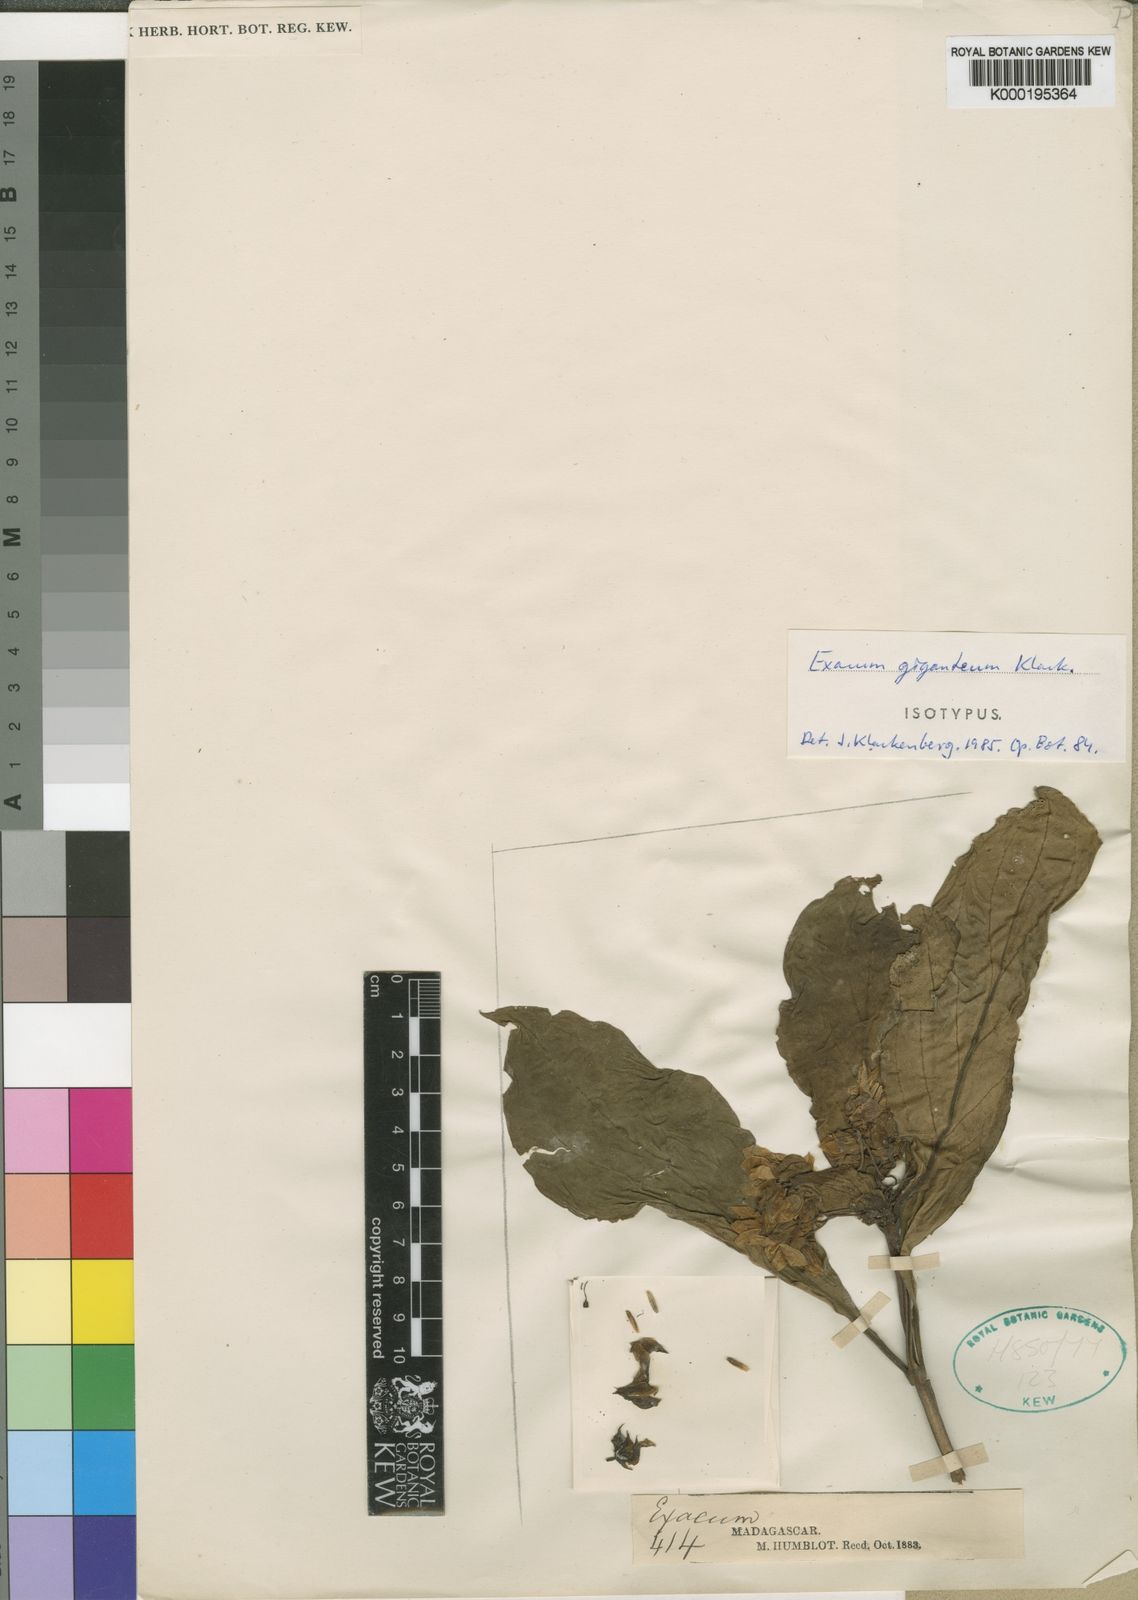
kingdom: Plantae
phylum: Tracheophyta
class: Magnoliopsida
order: Gentianales
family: Gentianaceae
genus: Exacum
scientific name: Exacum giganteum
